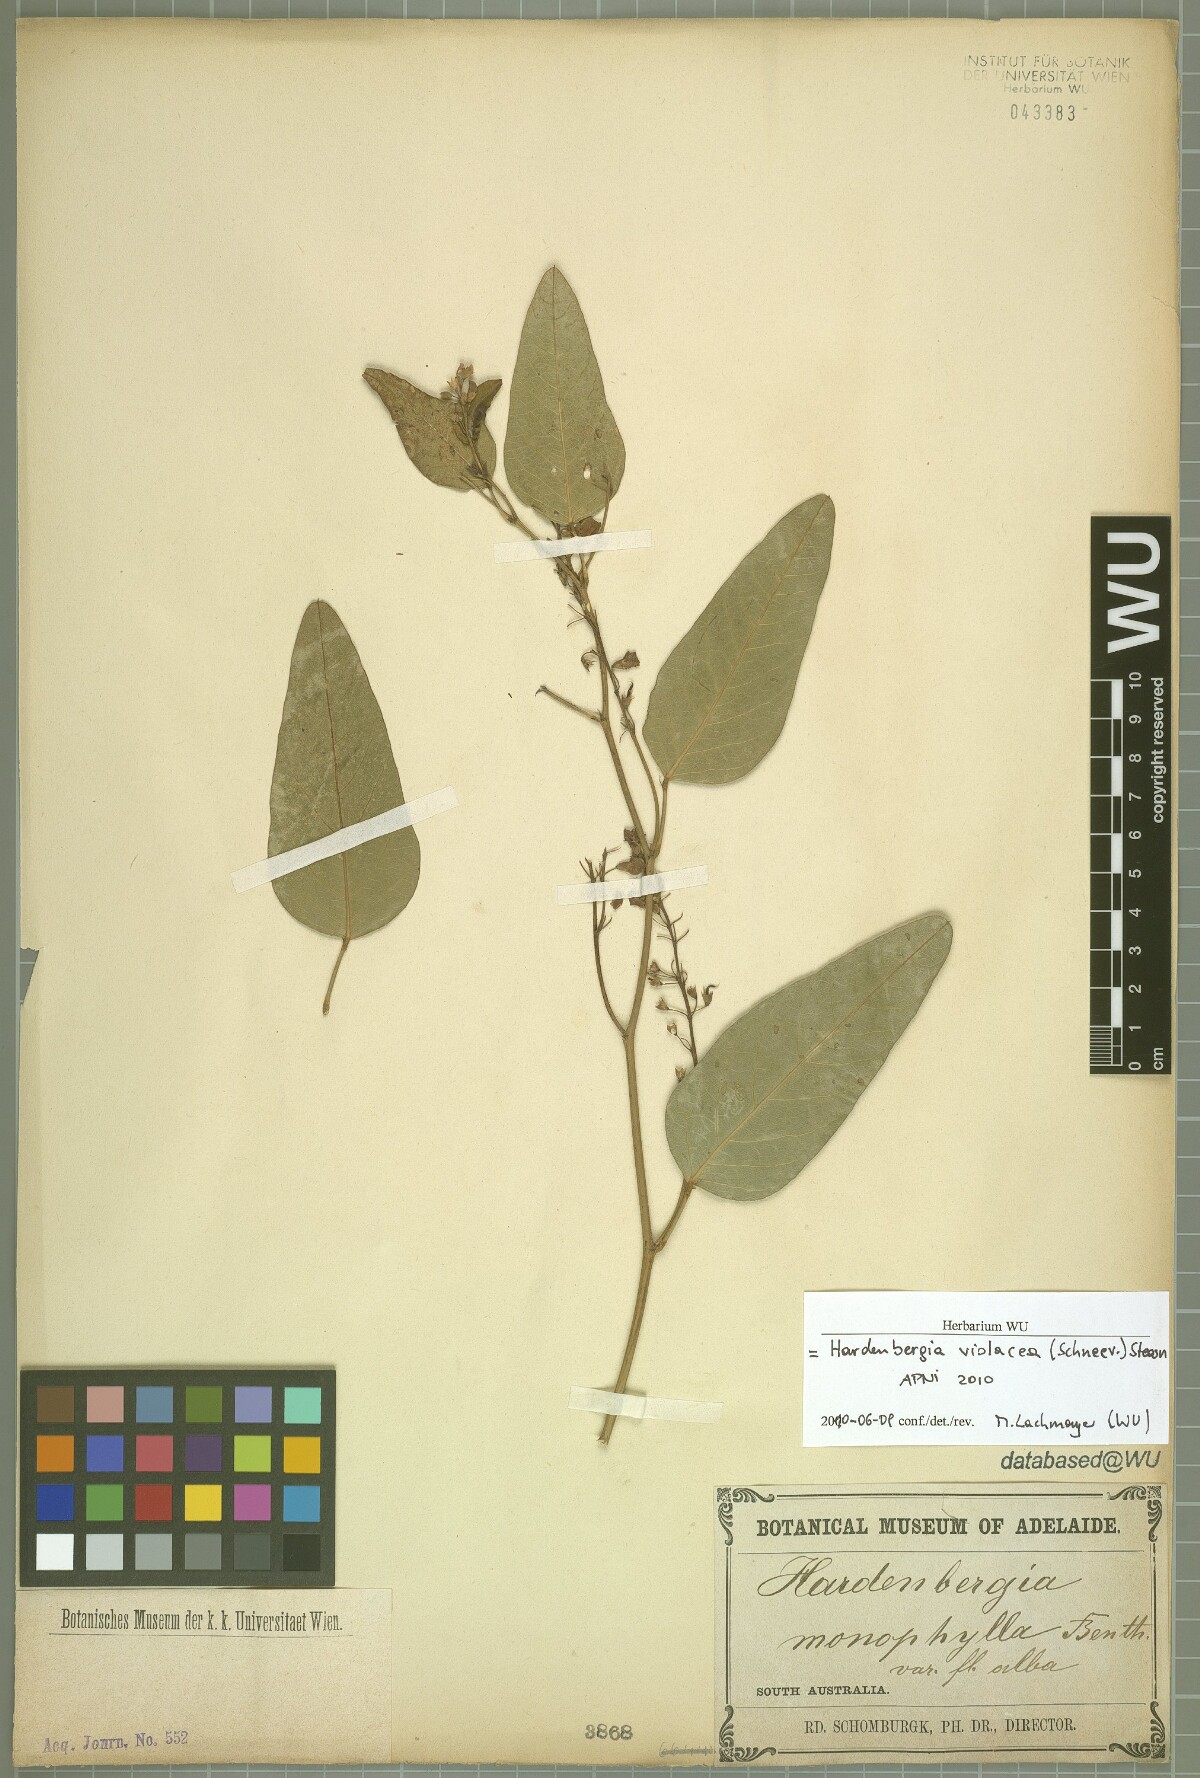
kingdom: Plantae
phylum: Tracheophyta
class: Magnoliopsida
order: Fabales
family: Fabaceae
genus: Hardenbergia
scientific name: Hardenbergia violacea
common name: Coral-pea
